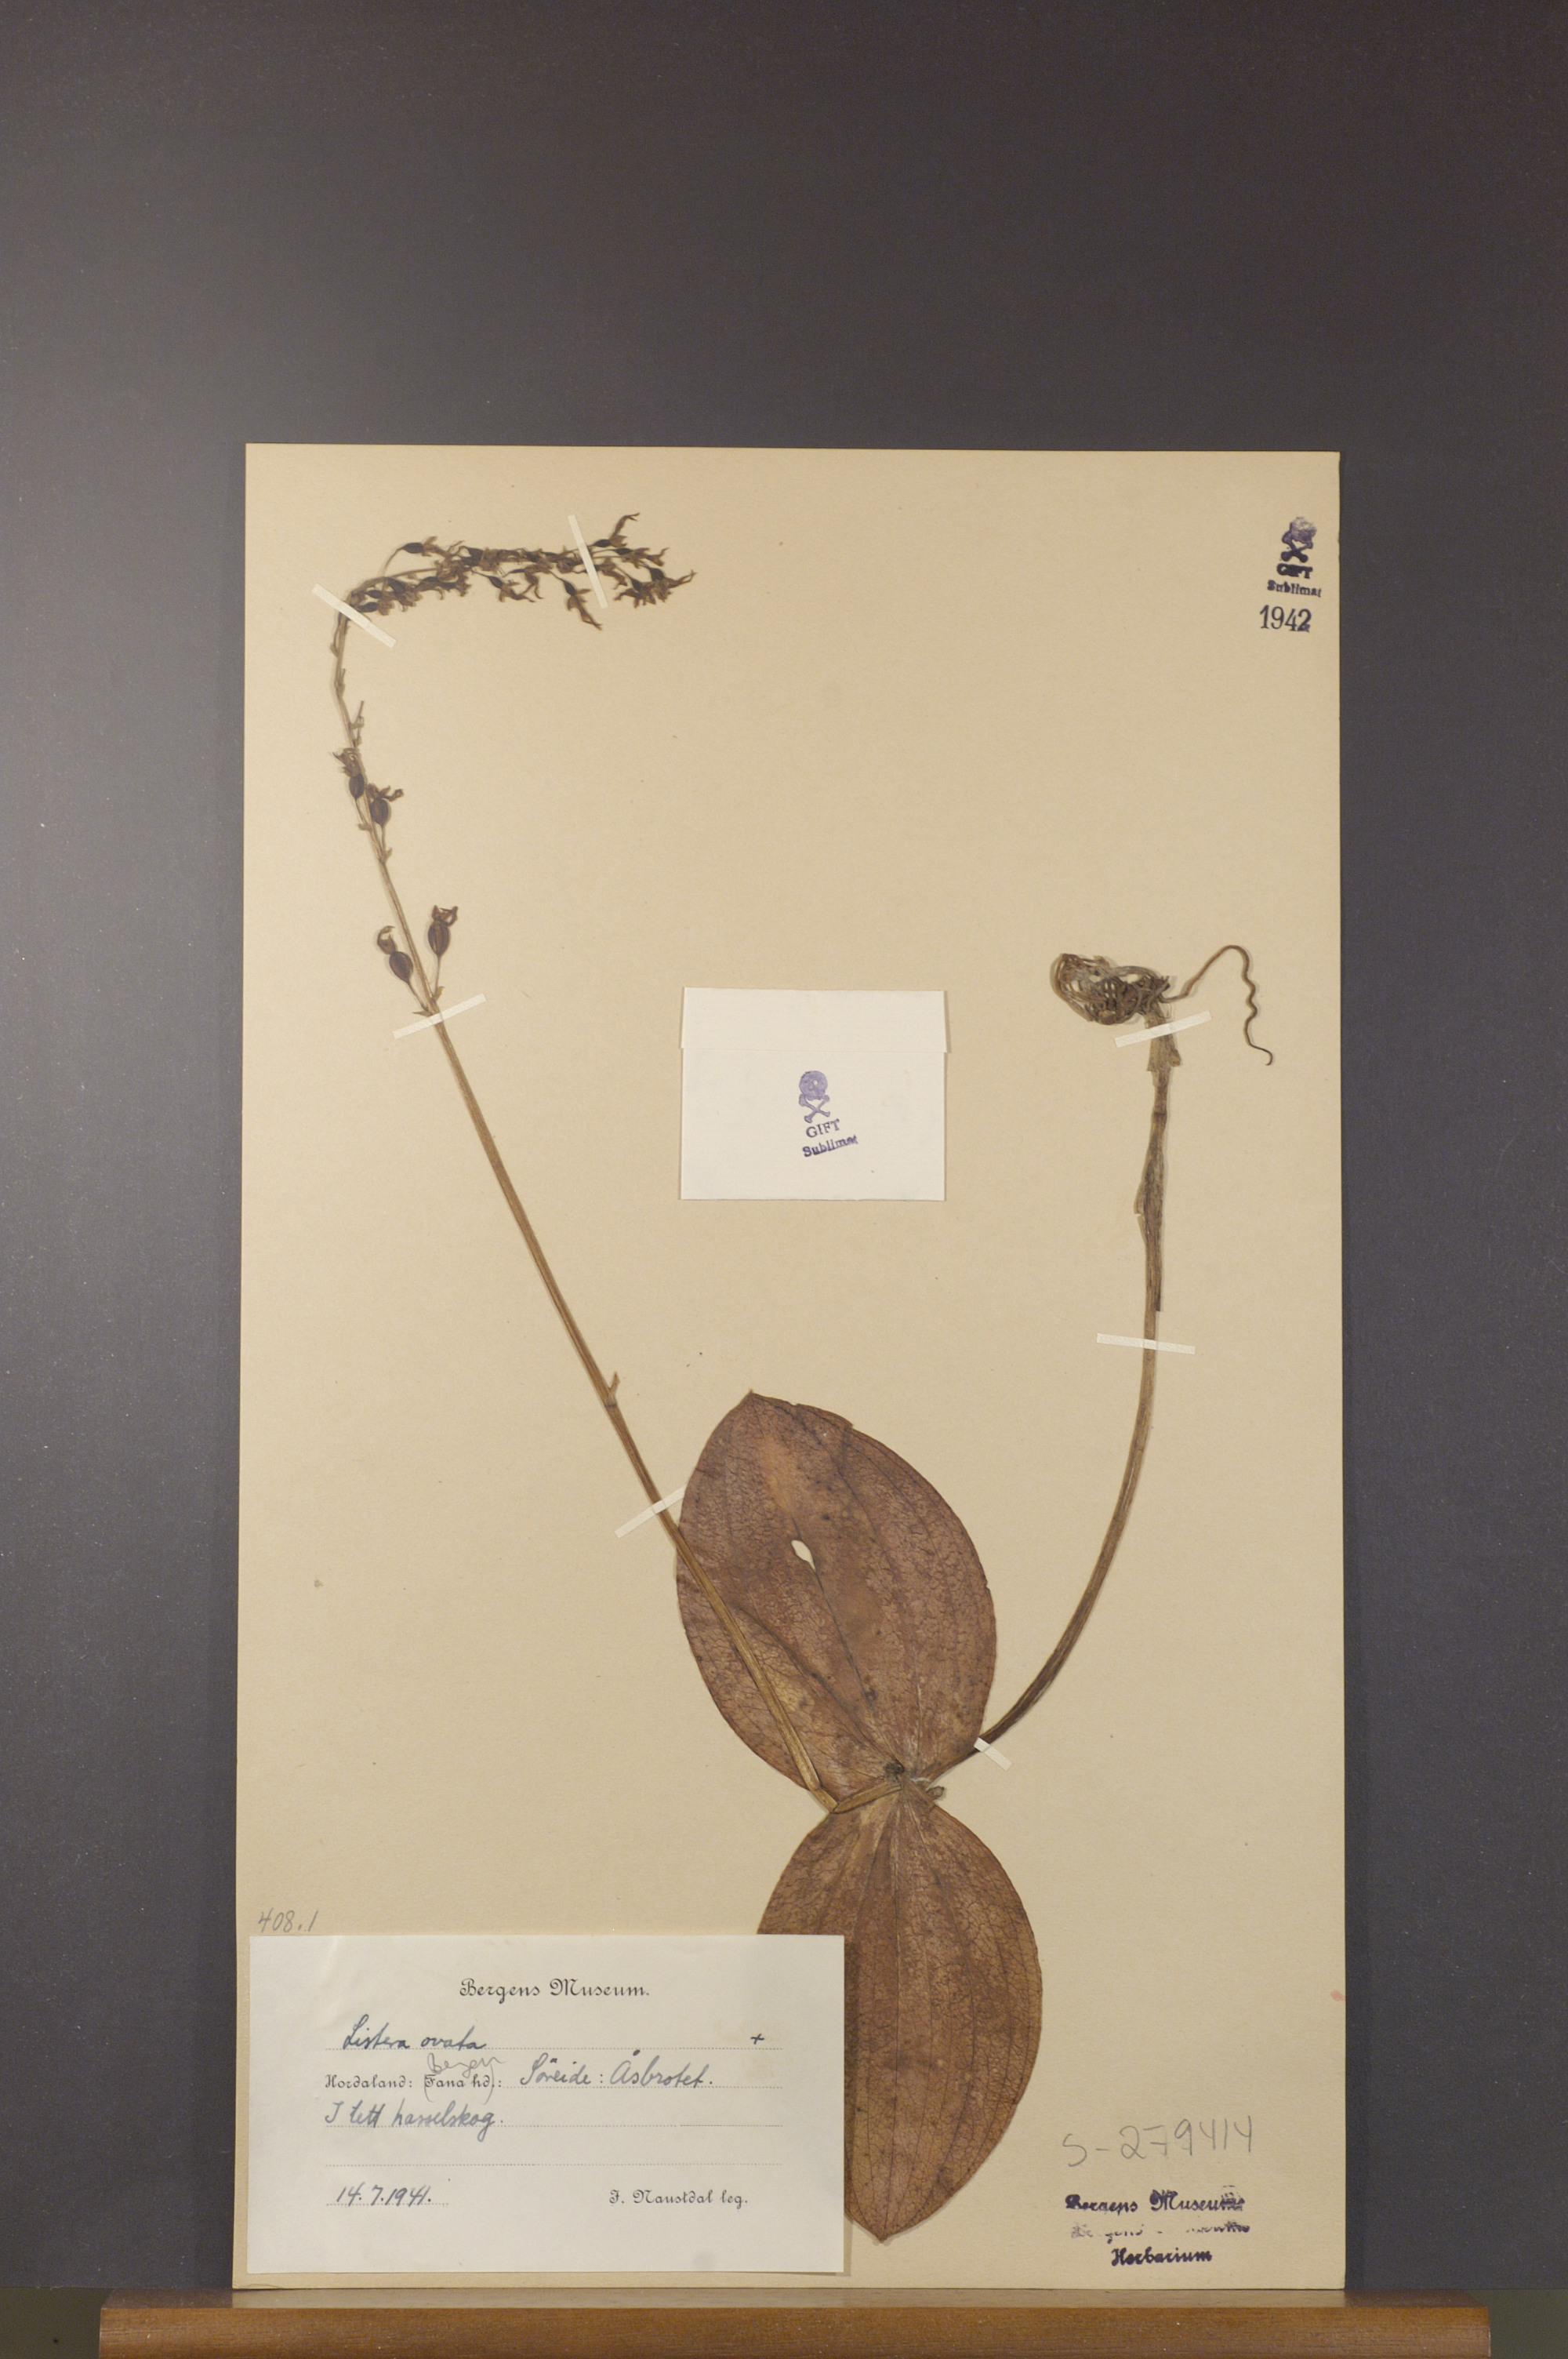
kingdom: Plantae
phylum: Tracheophyta
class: Liliopsida
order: Asparagales
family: Orchidaceae
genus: Neottia
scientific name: Neottia ovata
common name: Common twayblade
